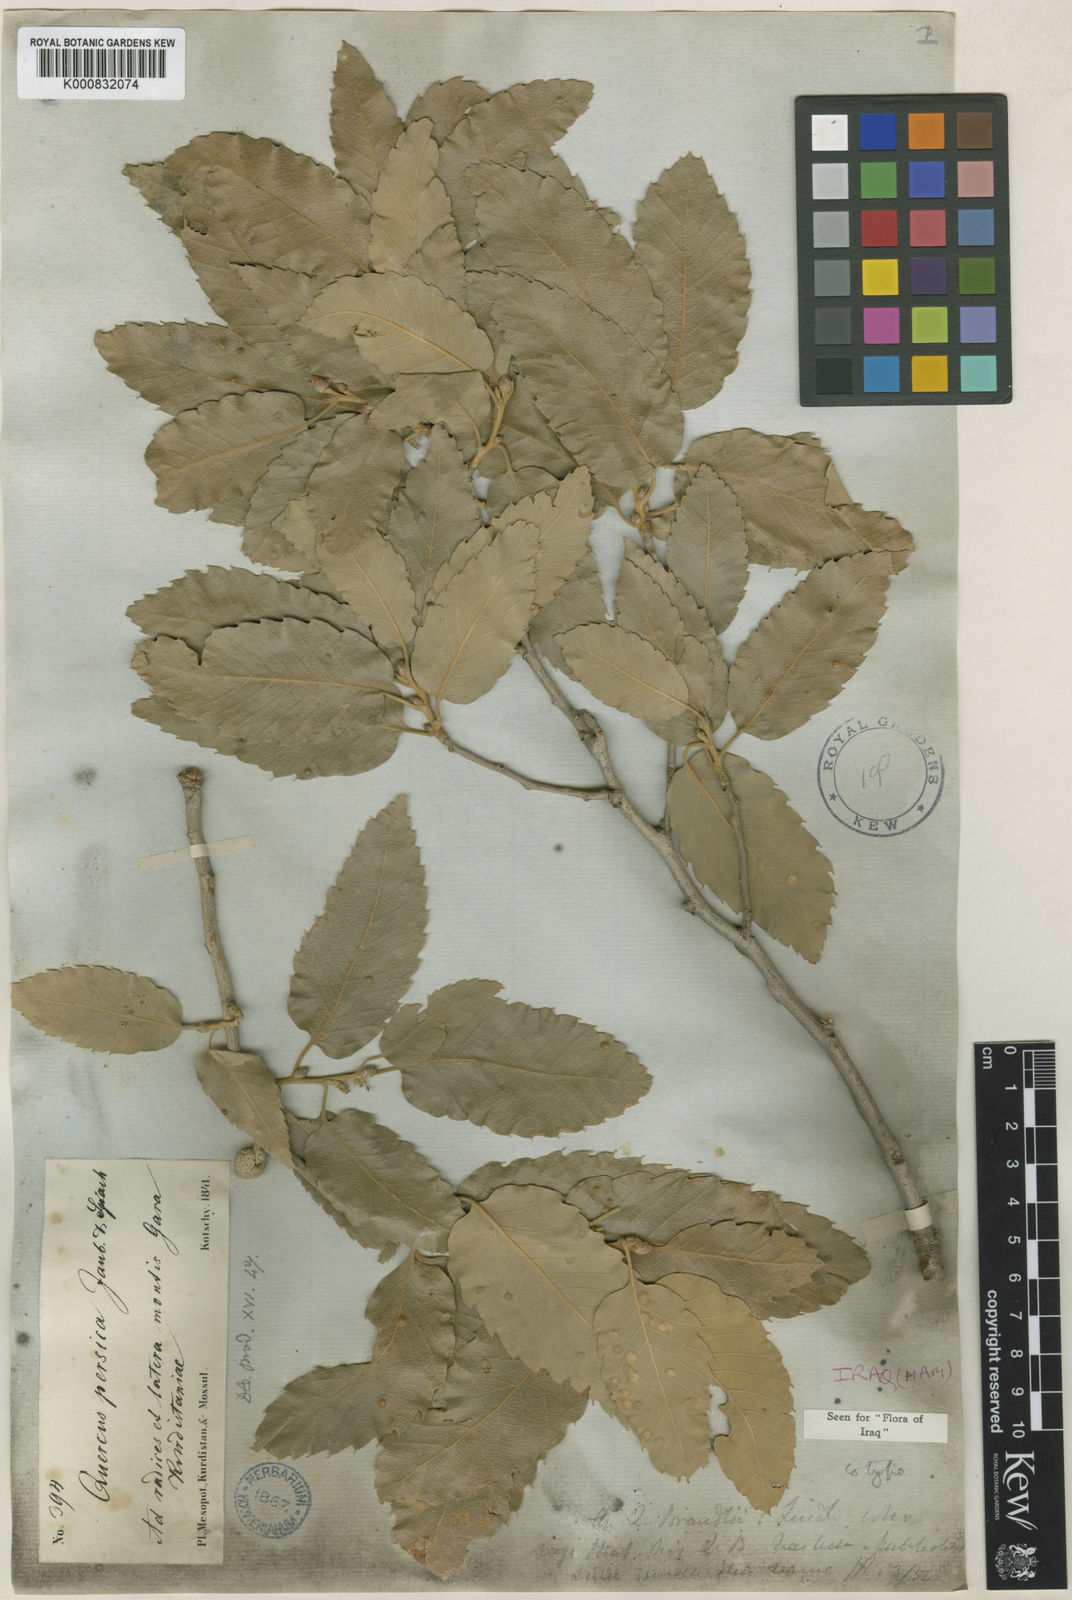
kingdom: Plantae
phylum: Tracheophyta
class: Magnoliopsida
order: Fagales
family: Fagaceae
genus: Quercus
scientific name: Quercus cerris
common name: Turkey oak
